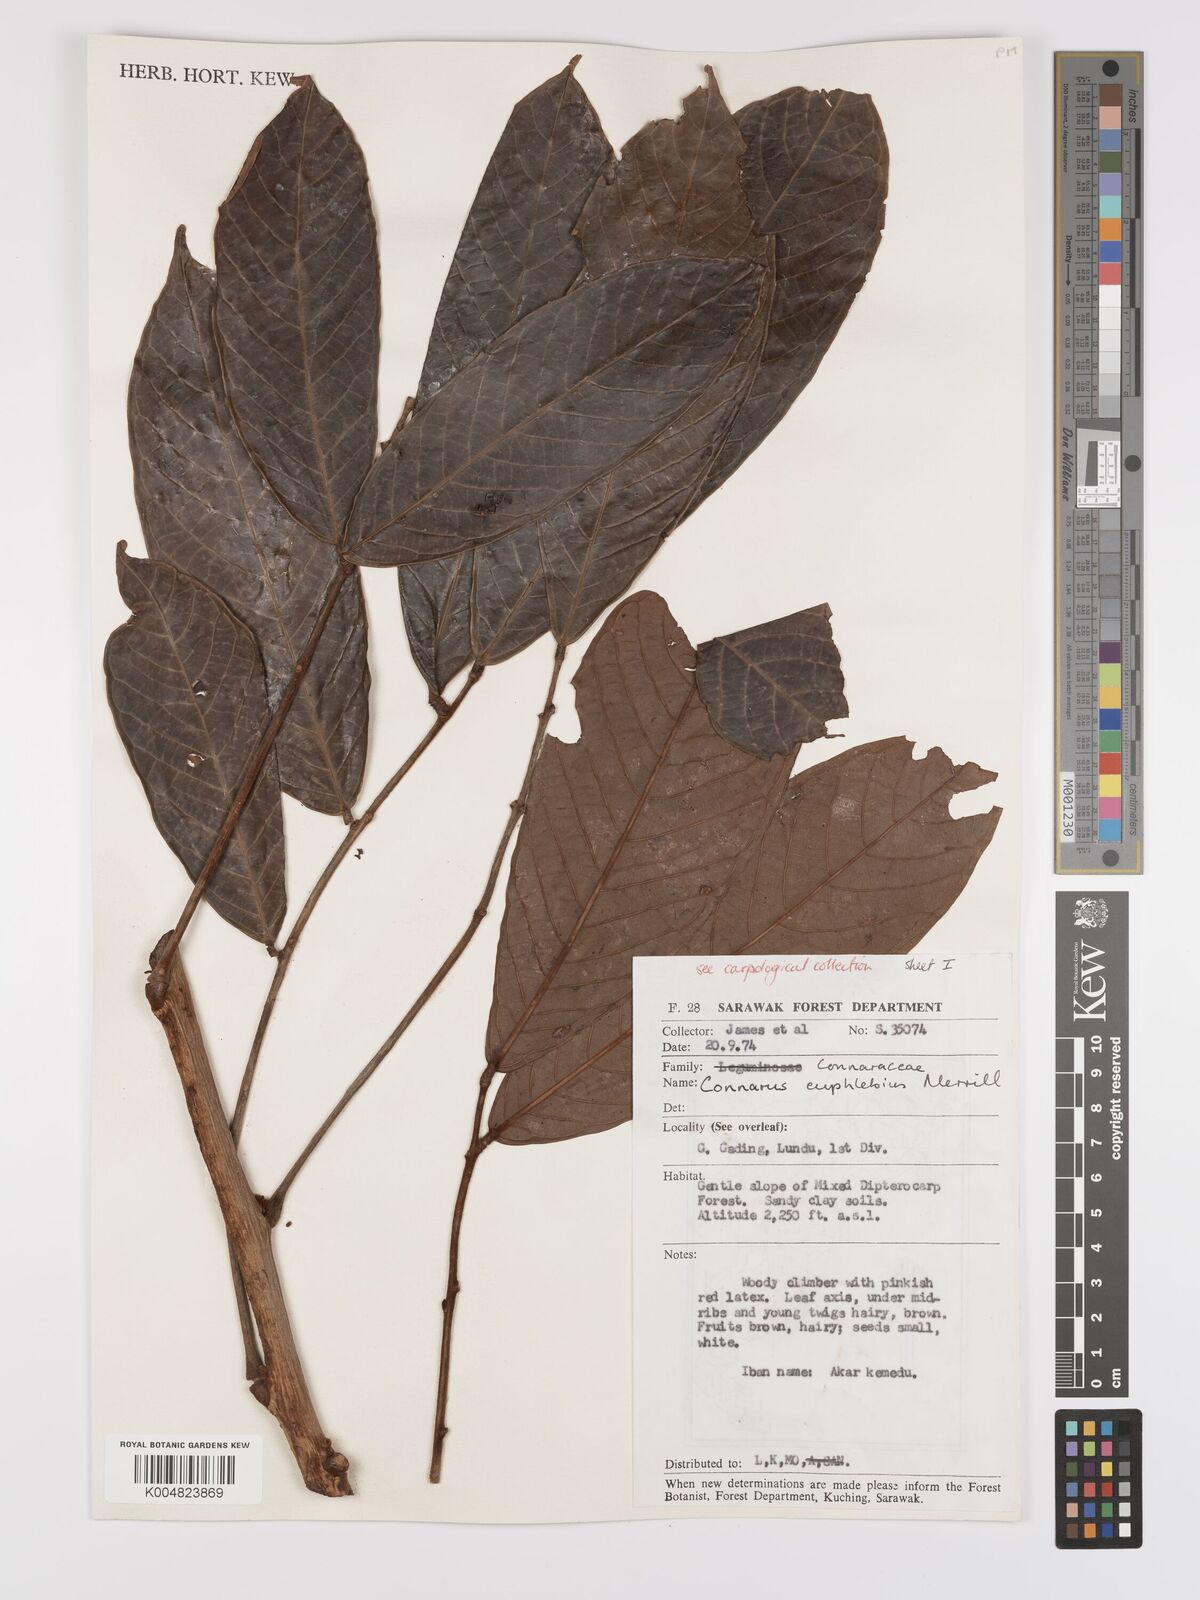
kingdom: Plantae
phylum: Tracheophyta
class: Magnoliopsida
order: Oxalidales
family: Connaraceae
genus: Connarus
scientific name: Connarus euphlebius
